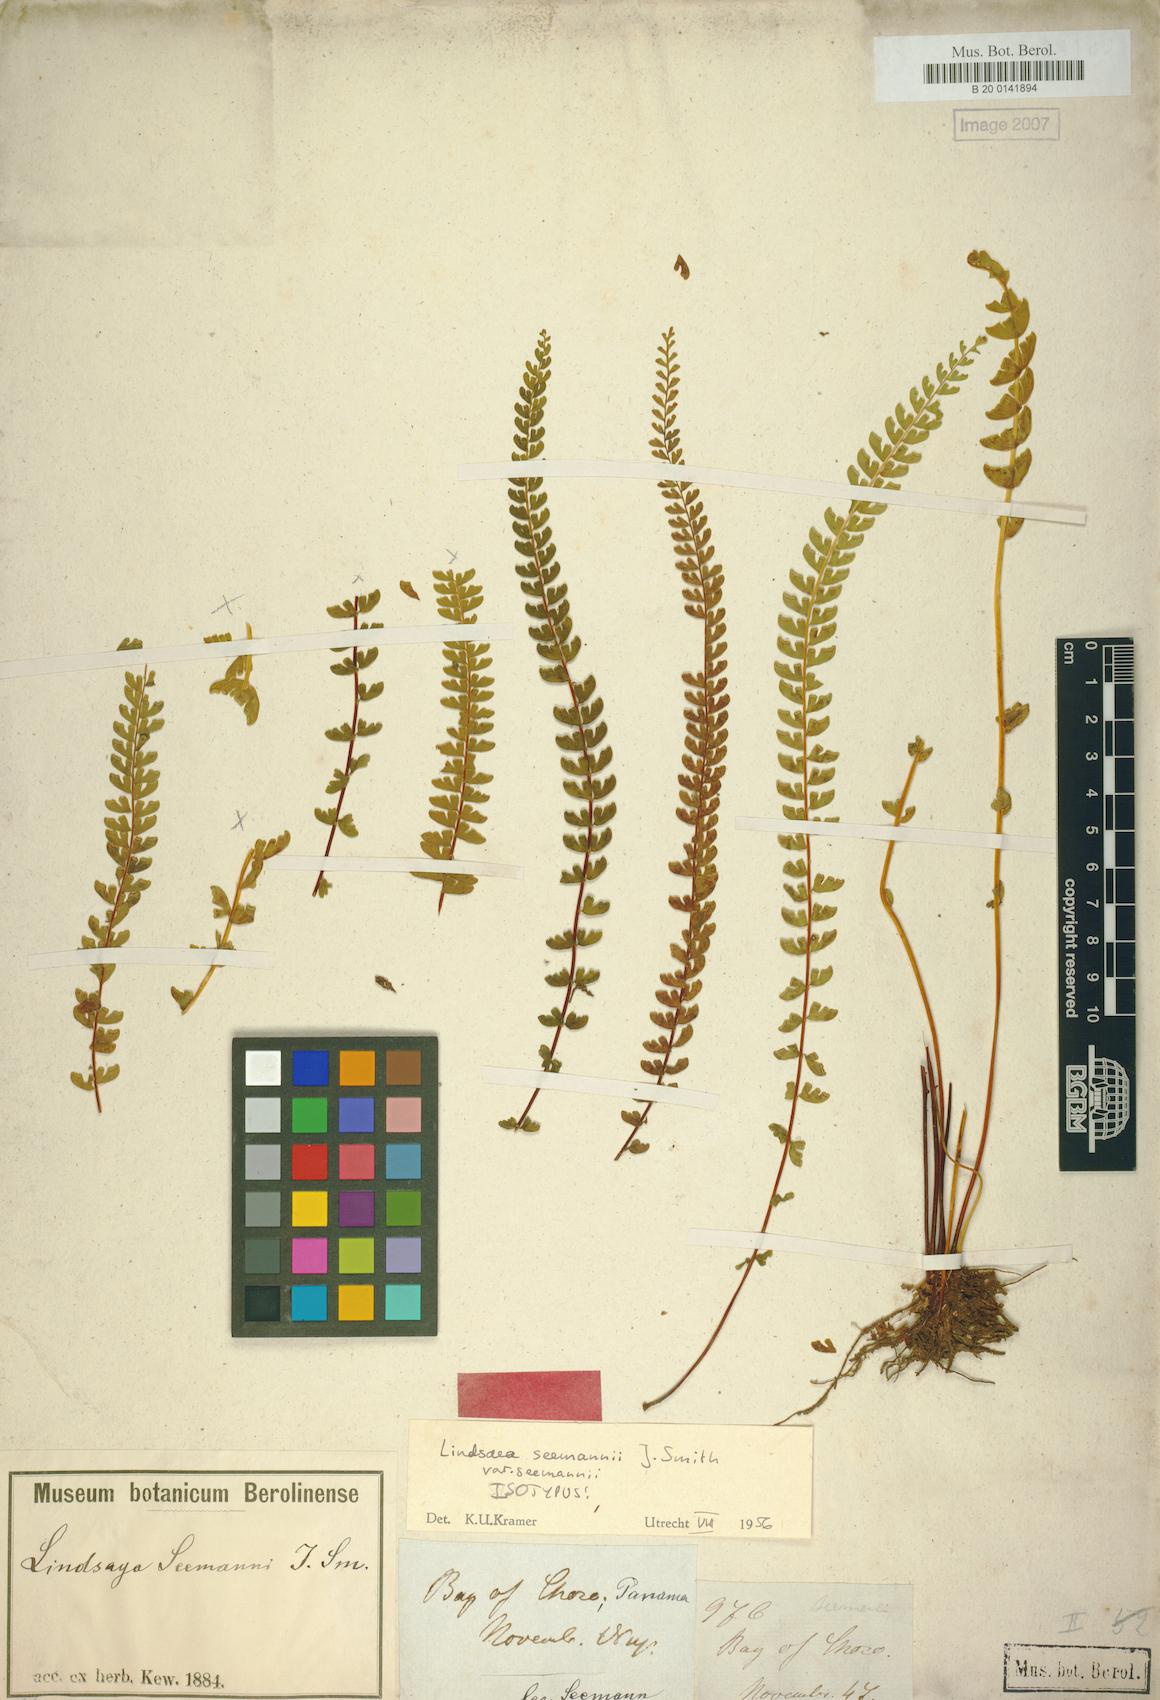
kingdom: Plantae
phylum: Tracheophyta
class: Polypodiopsida
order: Polypodiales
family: Lindsaeaceae
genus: Lindsaea
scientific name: Lindsaea seemannii
